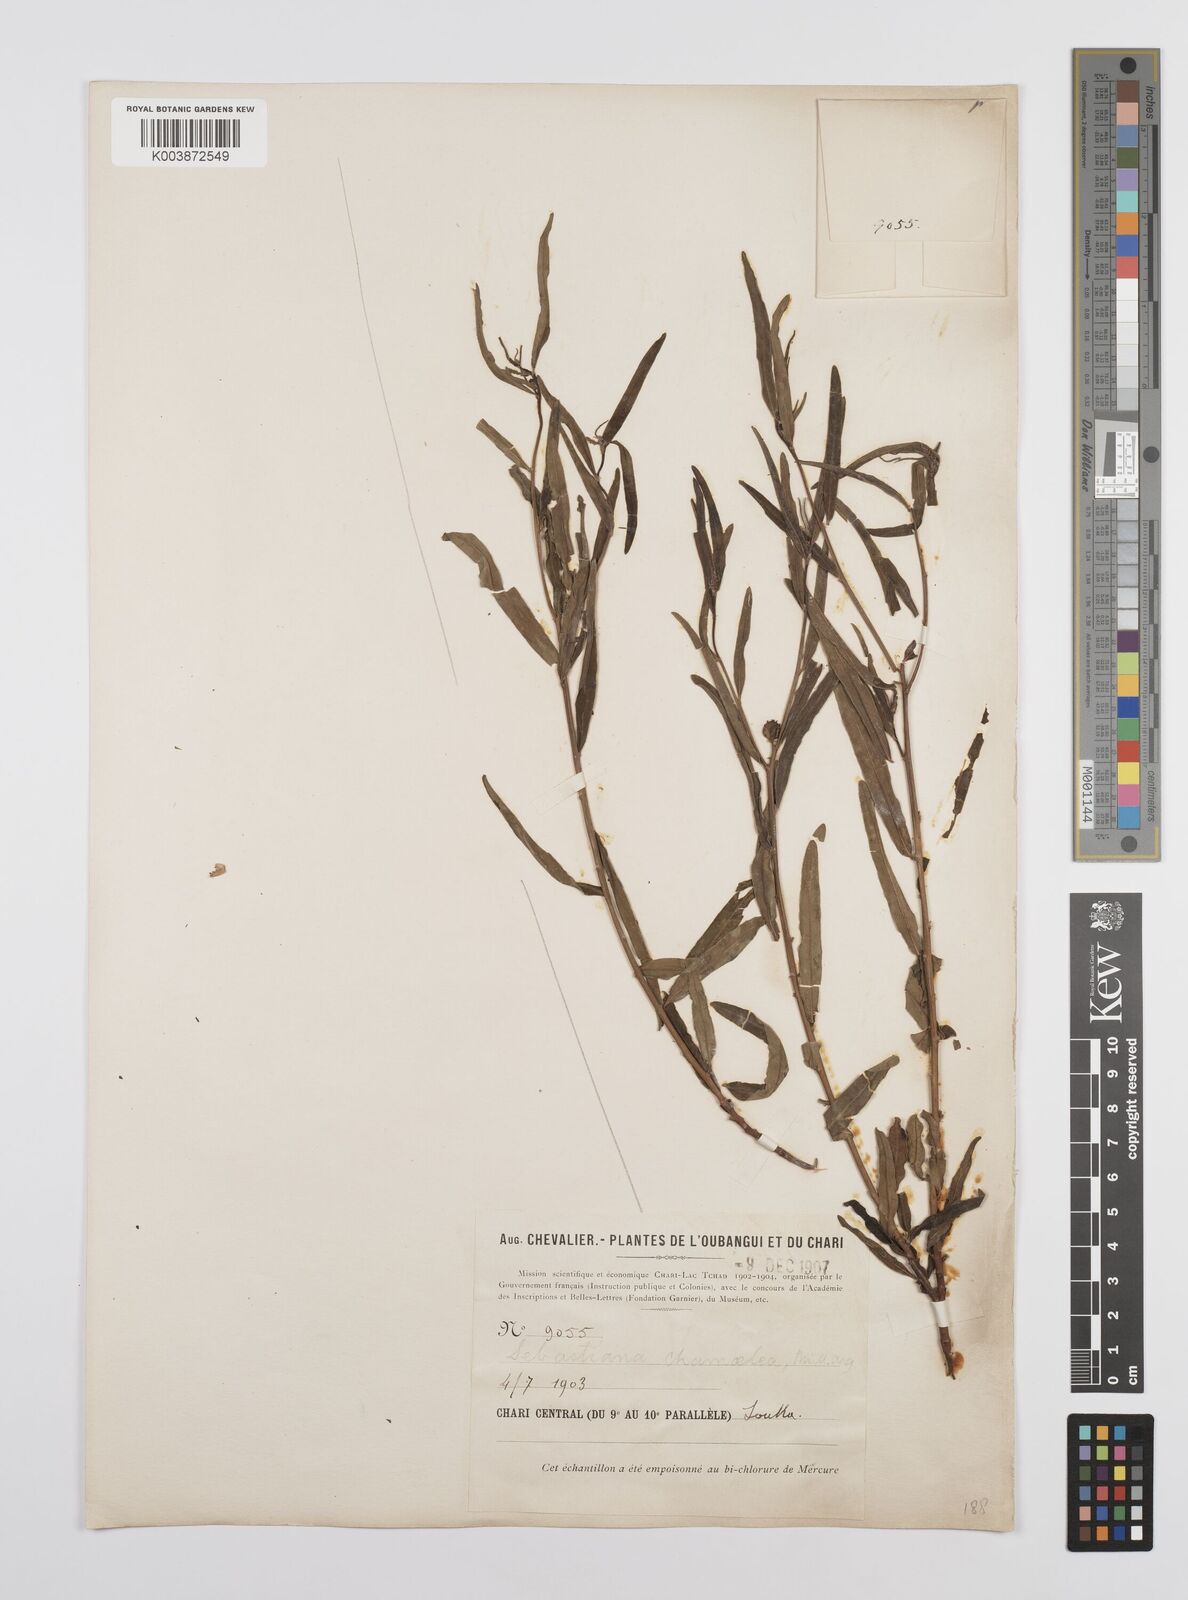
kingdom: Plantae
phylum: Tracheophyta
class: Magnoliopsida
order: Malpighiales
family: Euphorbiaceae
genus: Microstachys
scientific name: Microstachys chamaelea
